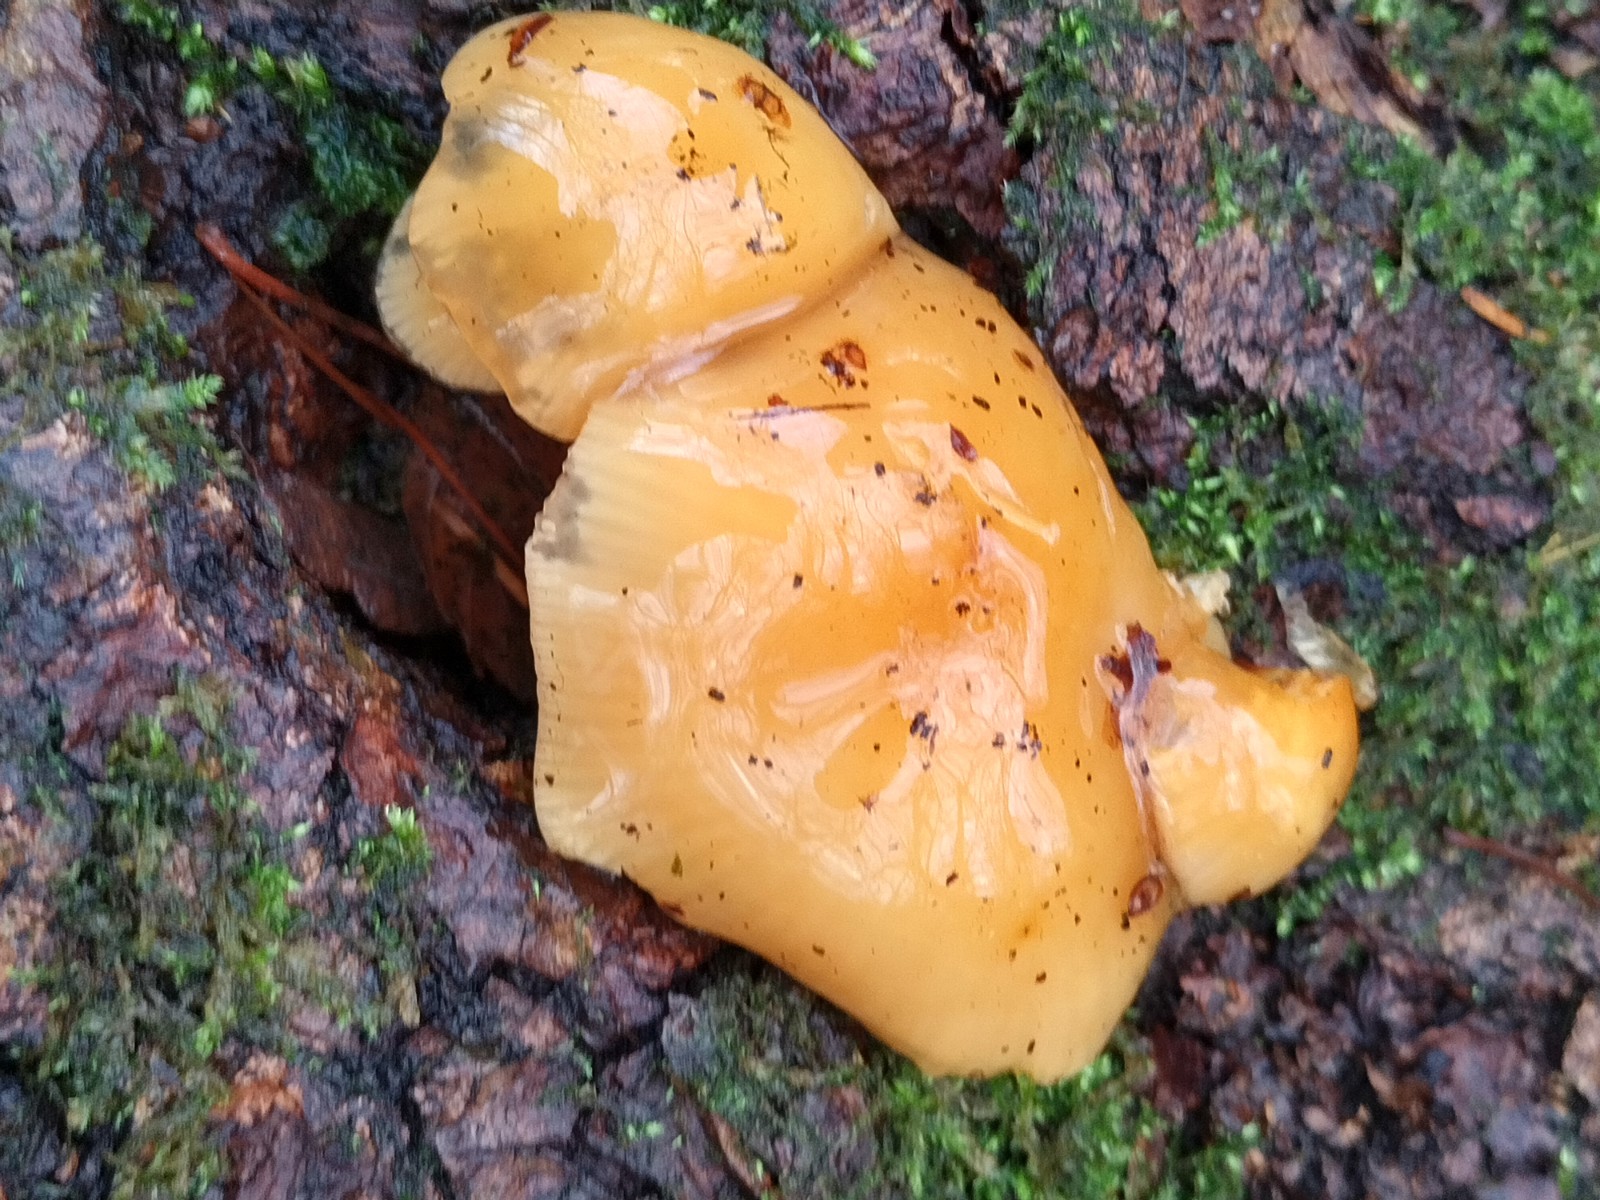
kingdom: Fungi
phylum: Basidiomycota
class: Agaricomycetes
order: Agaricales
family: Physalacriaceae
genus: Flammulina
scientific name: Flammulina
